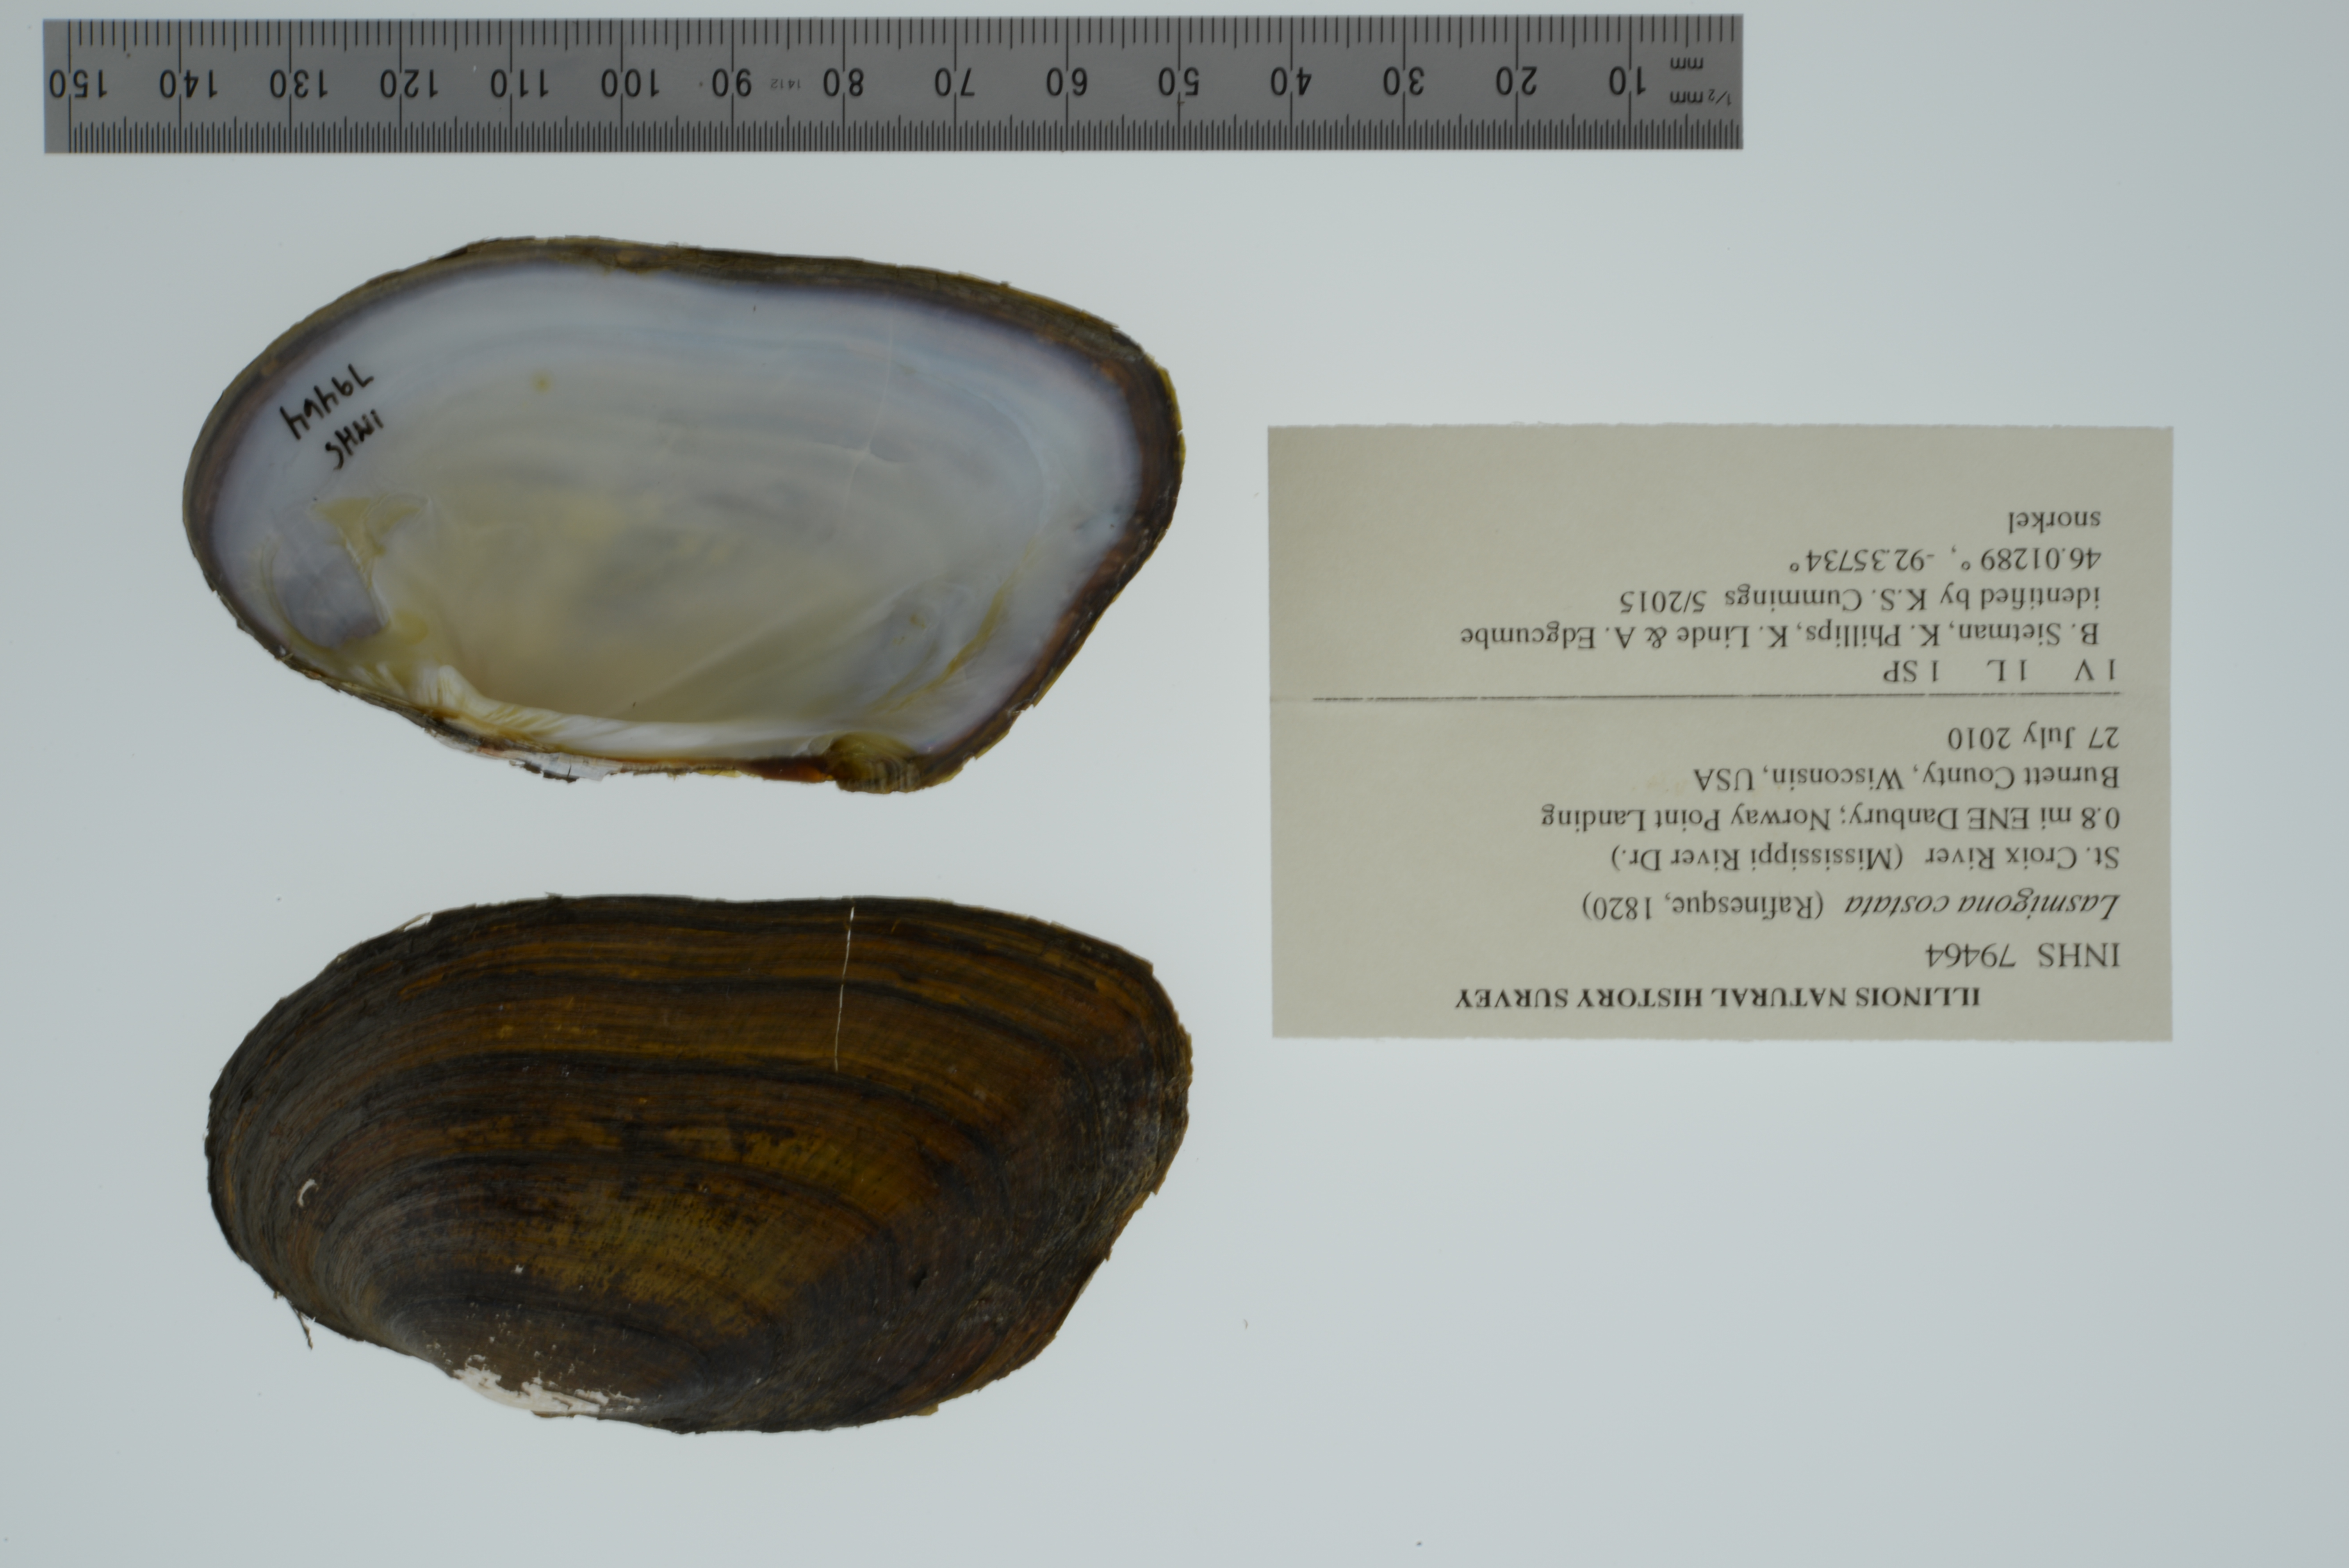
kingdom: Animalia
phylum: Mollusca
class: Bivalvia
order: Unionida
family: Unionidae
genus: Lasmigona
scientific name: Lasmigona costata
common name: Flutedshell
